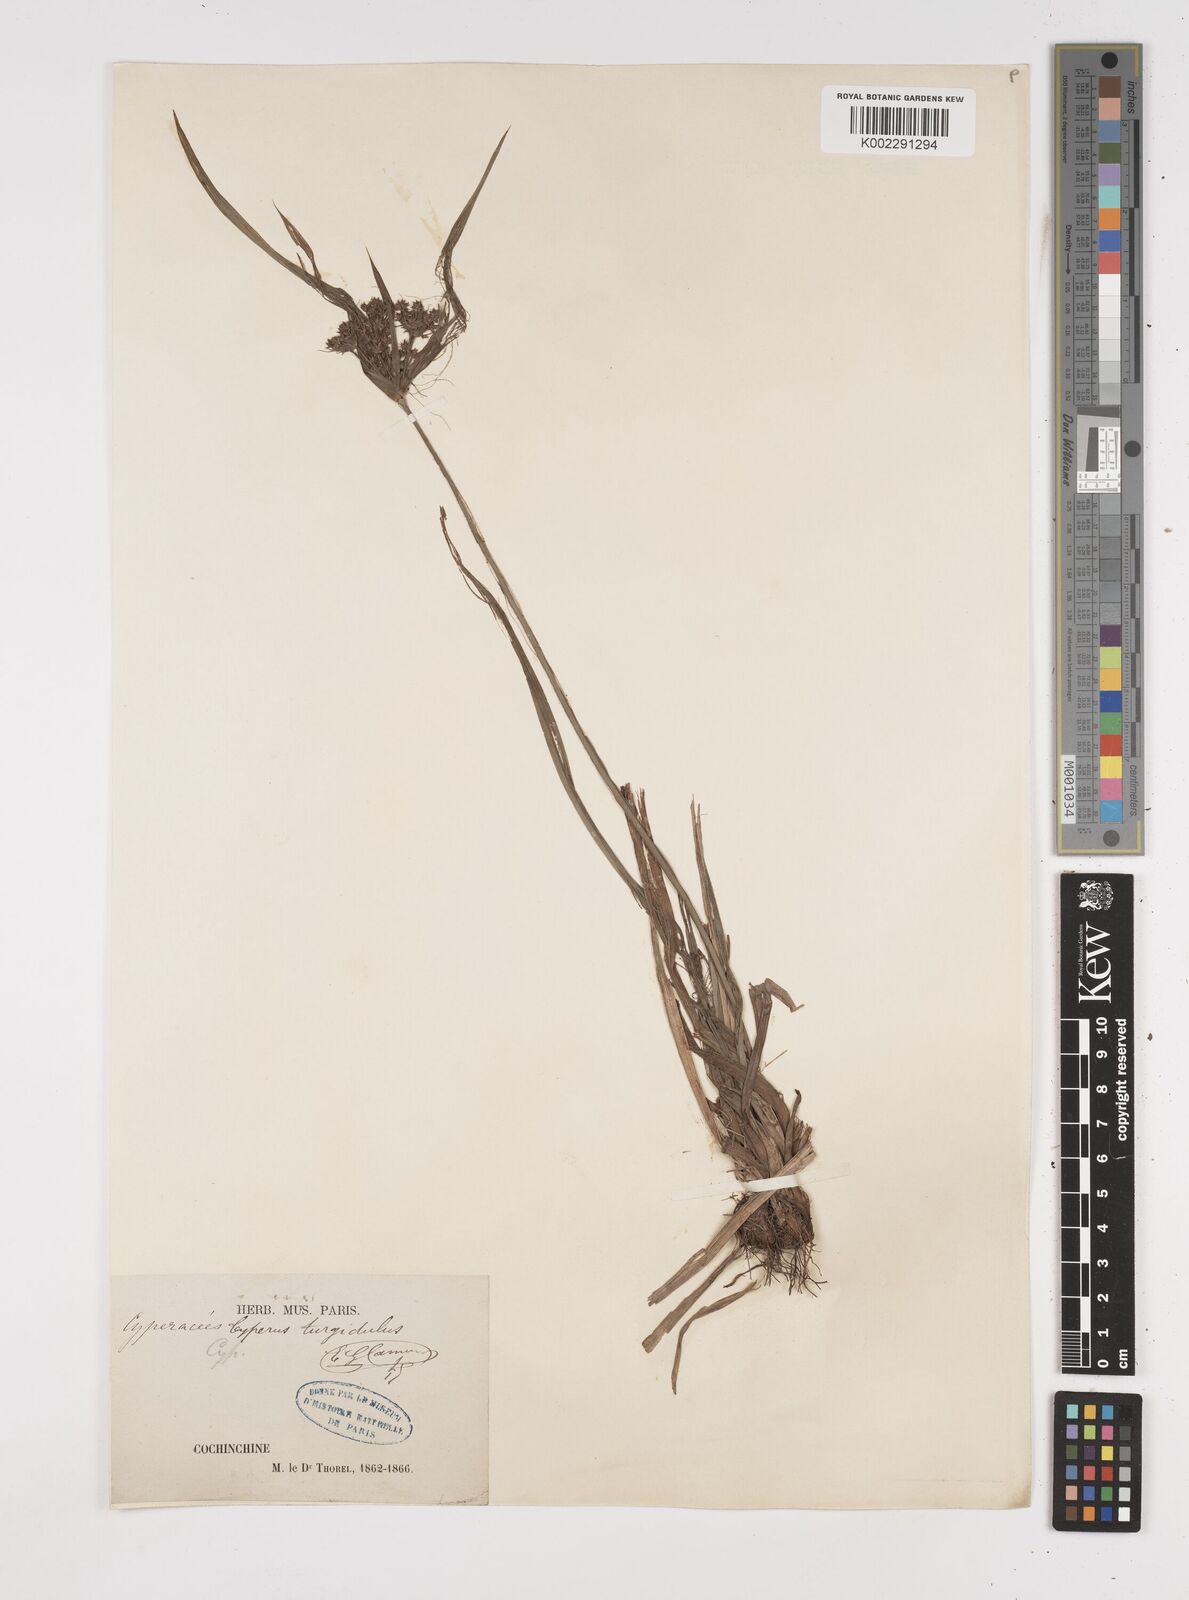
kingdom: Plantae
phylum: Tracheophyta
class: Liliopsida
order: Poales
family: Cyperaceae
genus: Cyperus
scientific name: Cyperus trialatus
